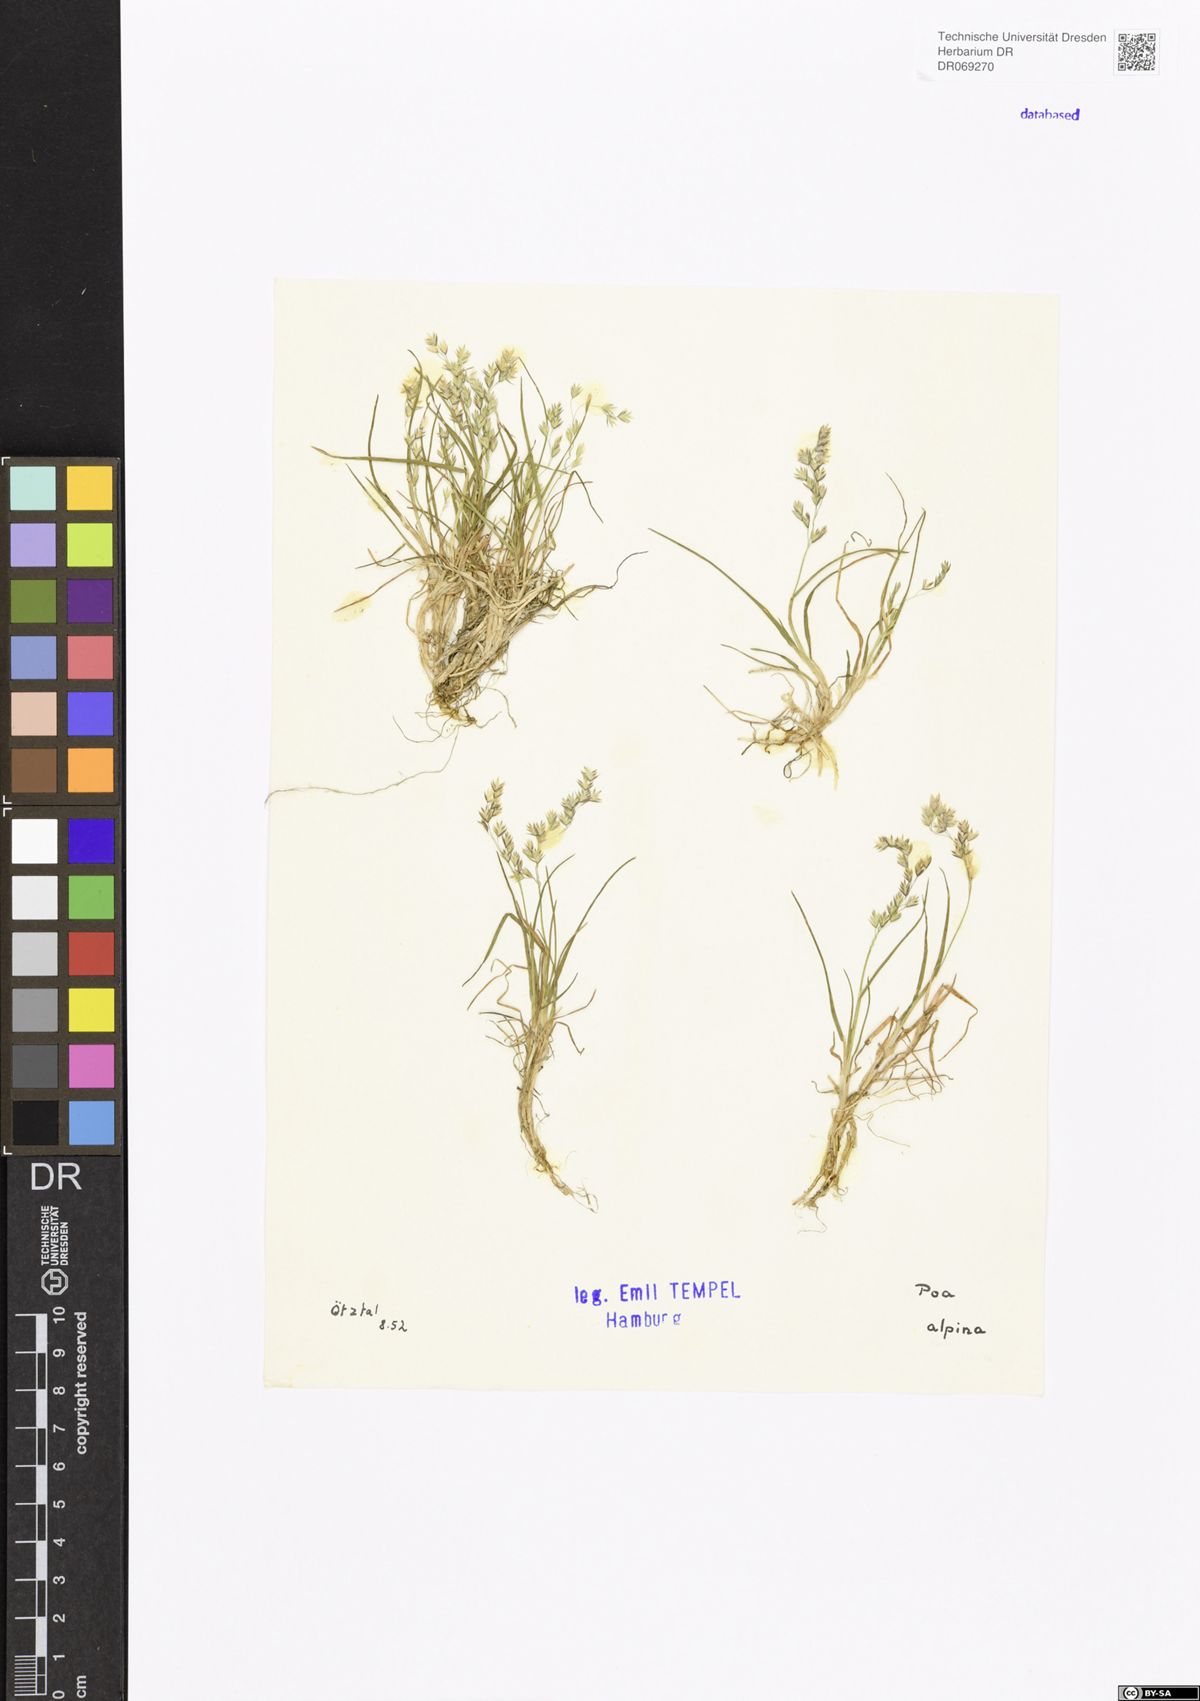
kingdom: Plantae
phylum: Tracheophyta
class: Liliopsida
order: Poales
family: Poaceae
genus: Poa
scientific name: Poa alpina
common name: Alpine bluegrass
